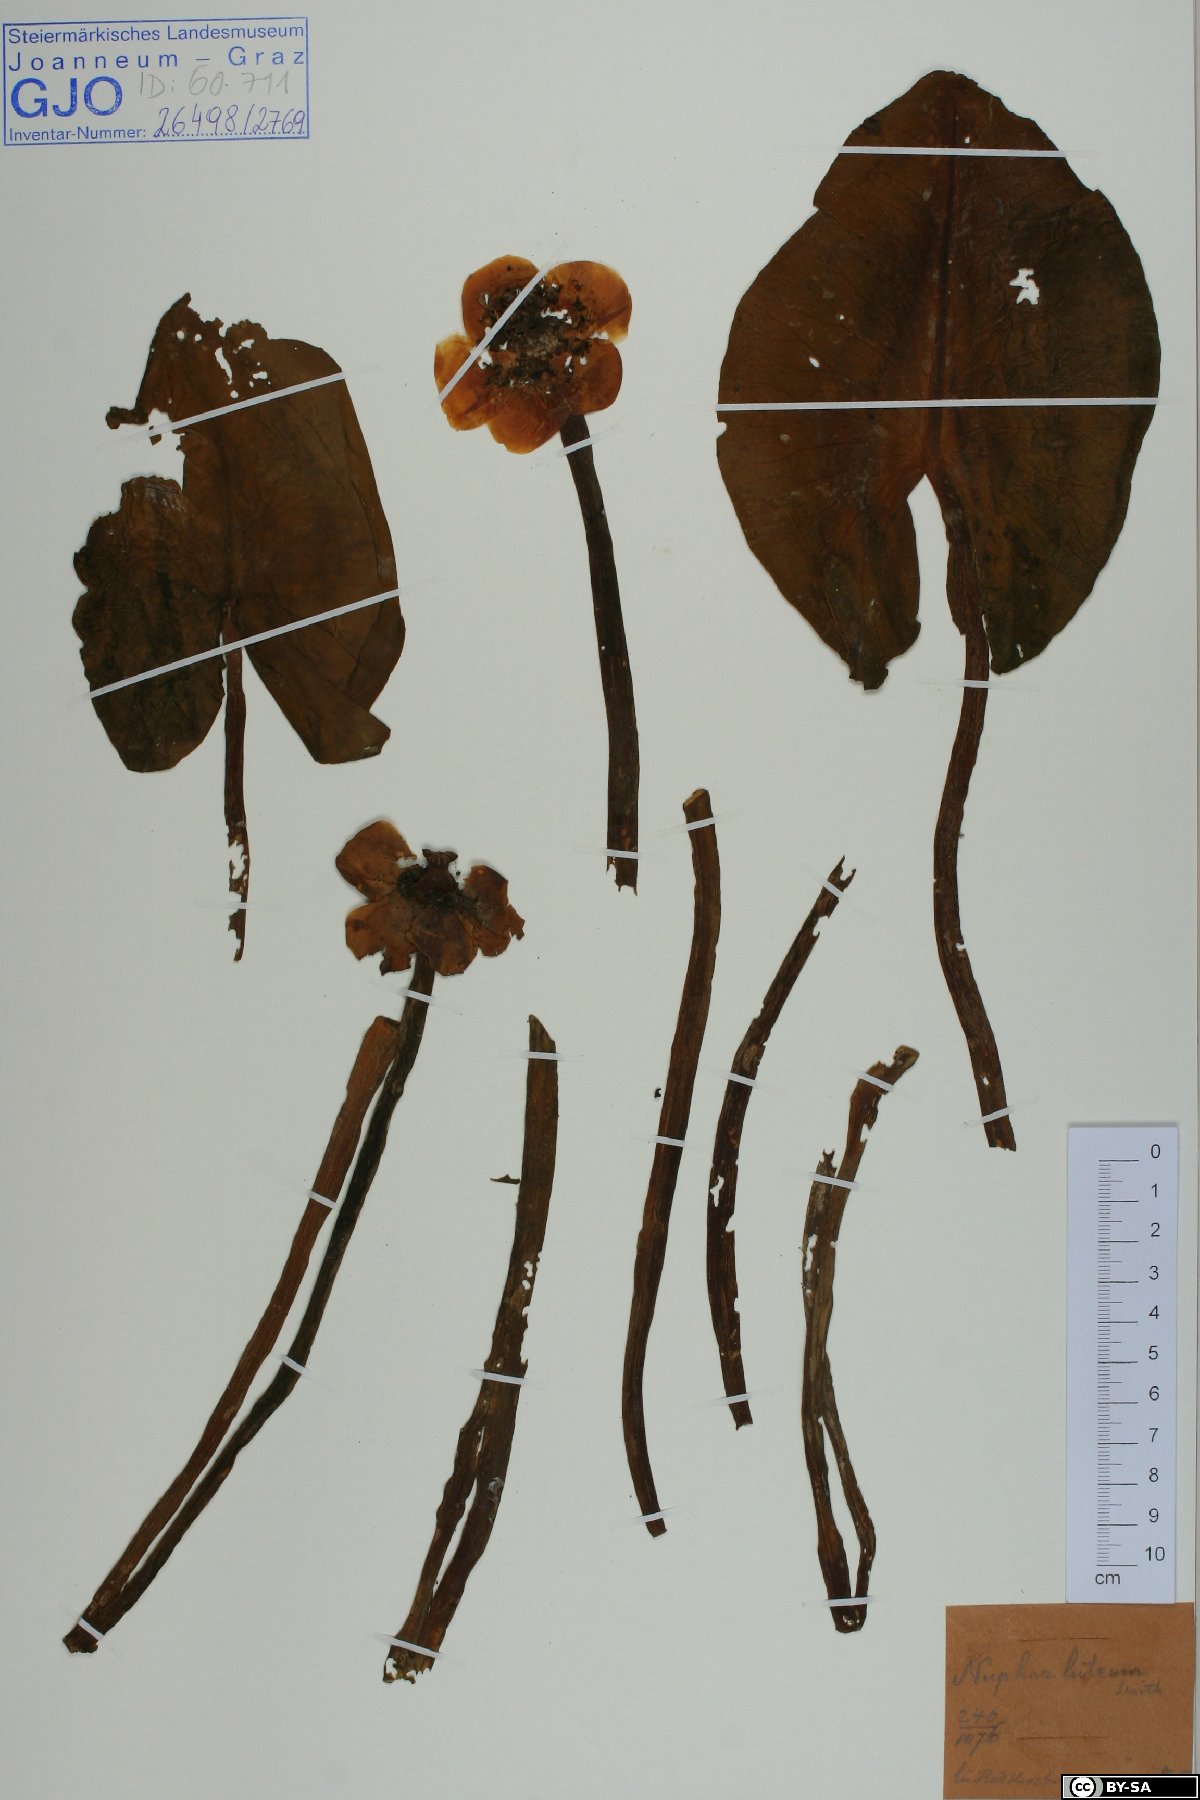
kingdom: Plantae
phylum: Tracheophyta
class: Magnoliopsida
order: Nymphaeales
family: Nymphaeaceae
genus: Nuphar
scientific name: Nuphar lutea
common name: Yellow water-lily
